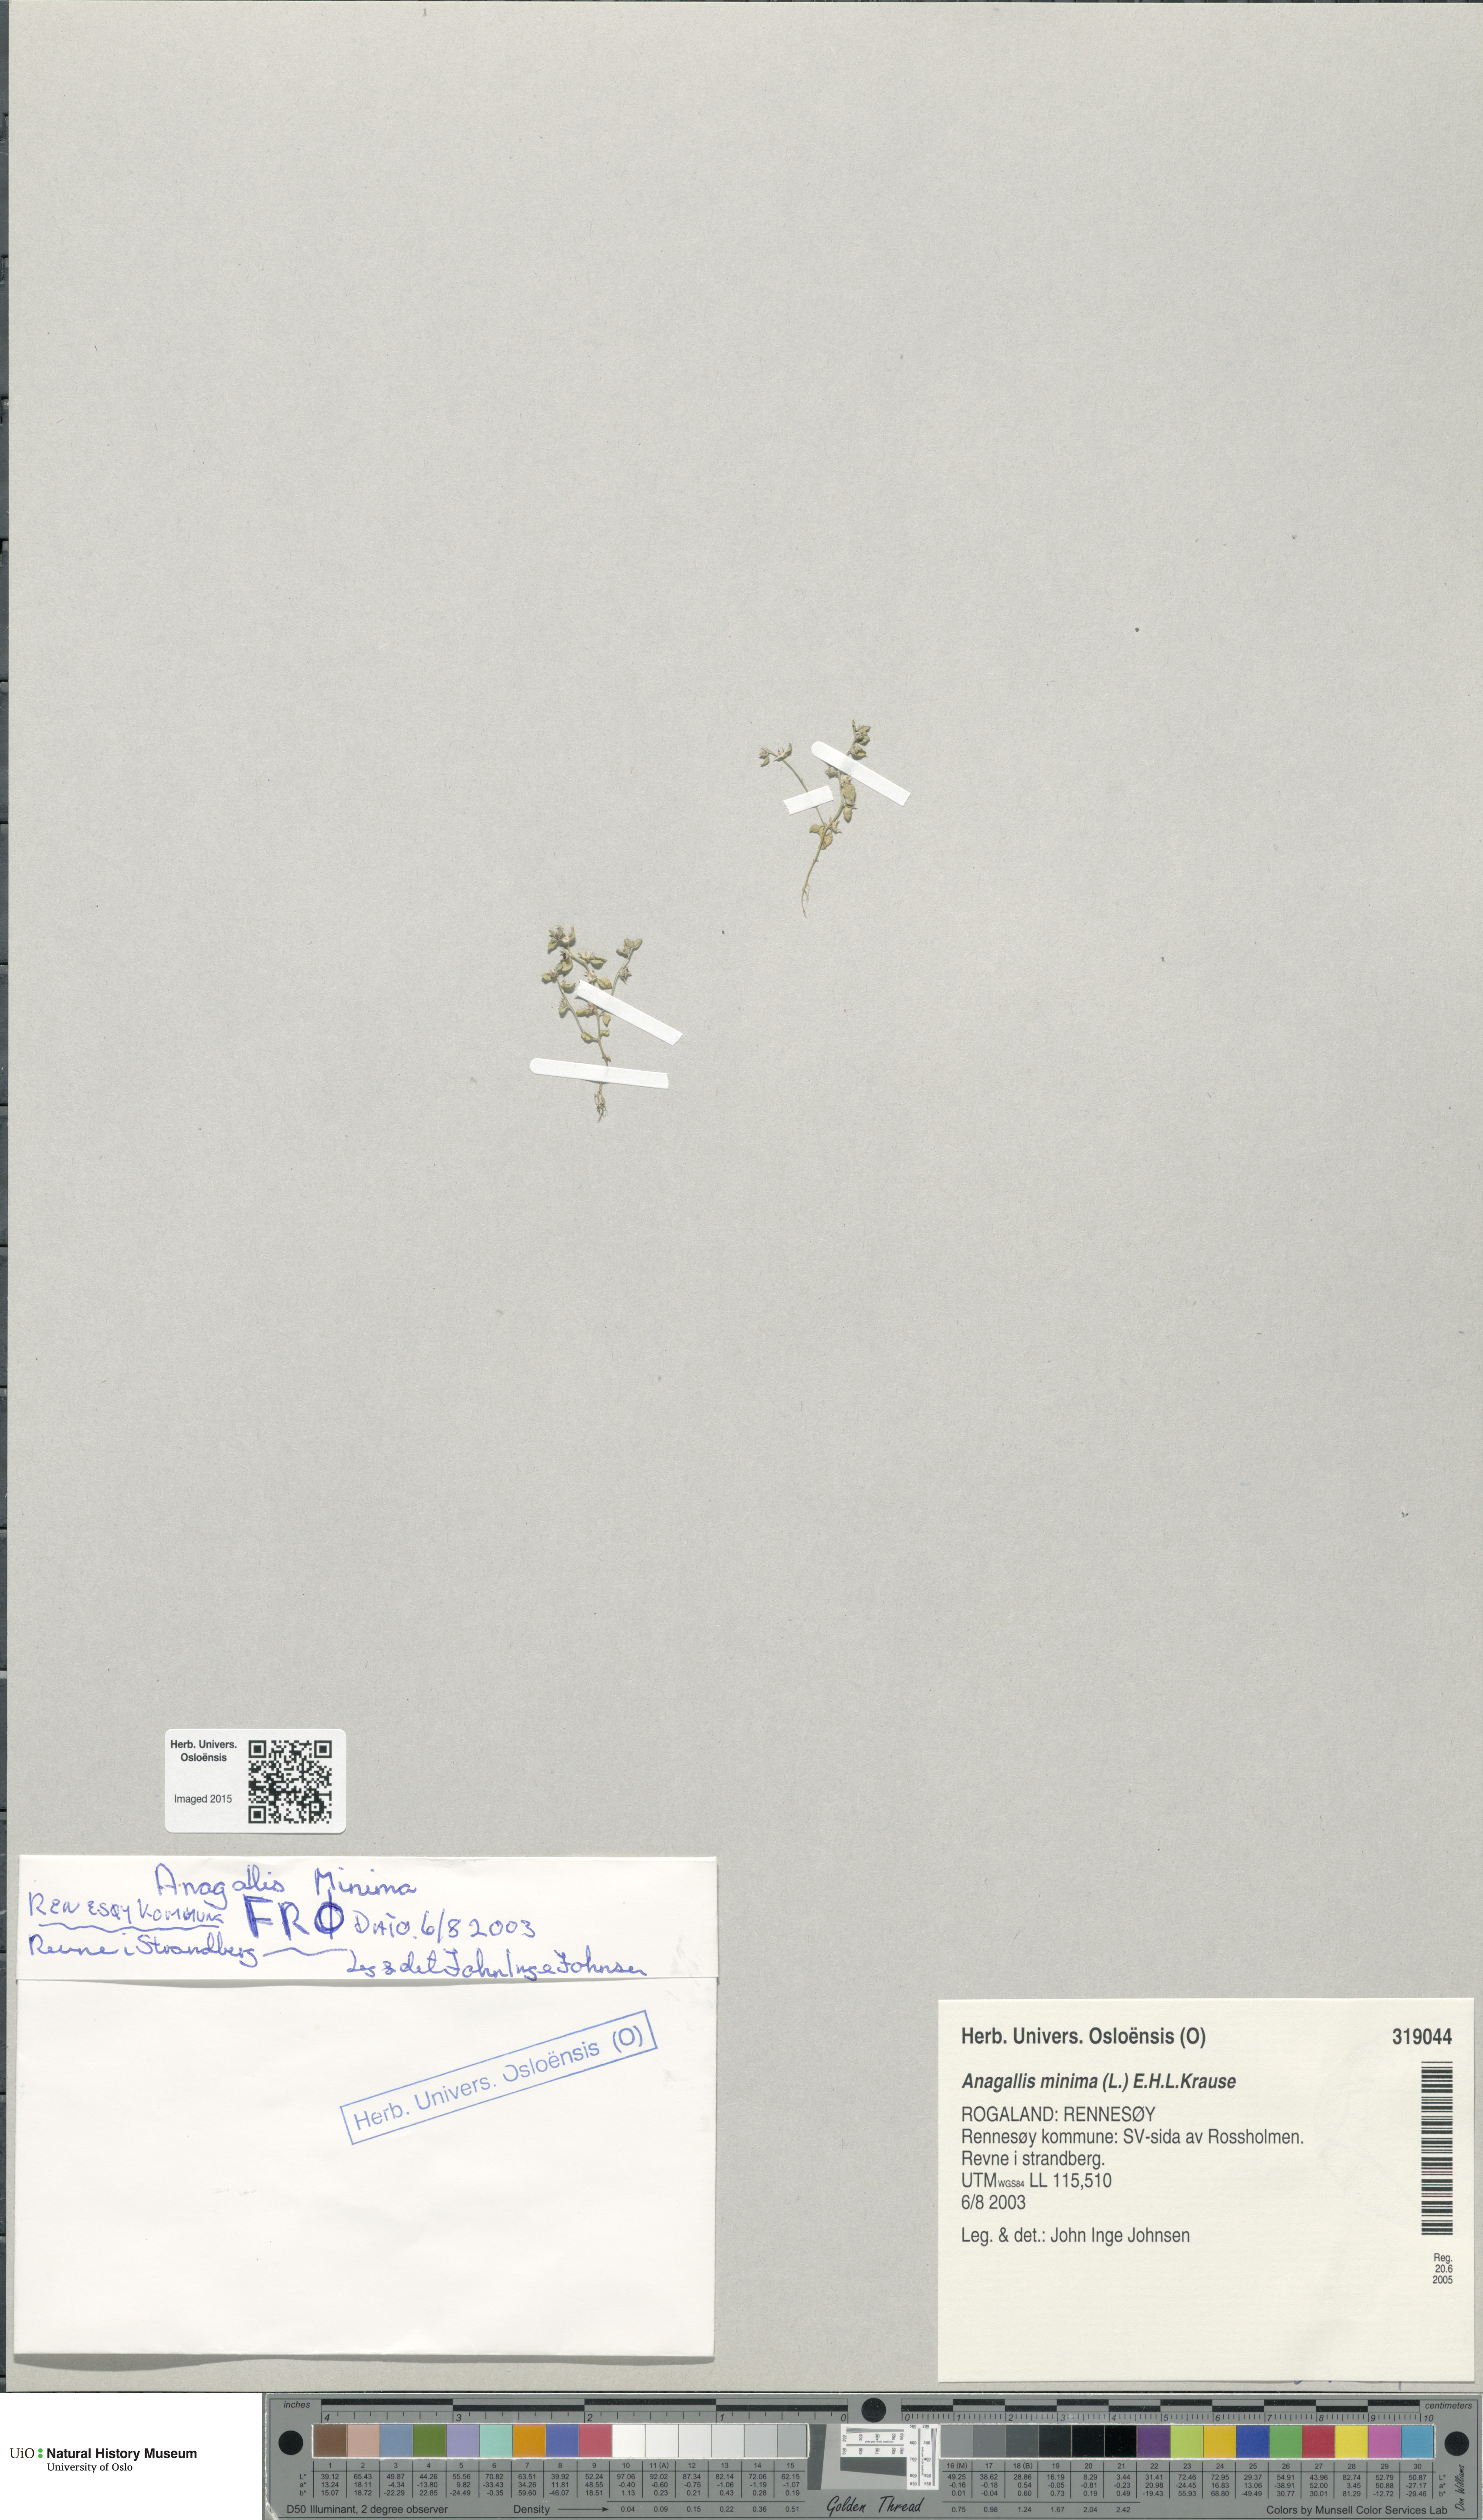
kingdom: Plantae
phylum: Tracheophyta
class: Magnoliopsida
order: Ericales
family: Primulaceae
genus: Lysimachia
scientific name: Lysimachia minima
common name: Chaffweed
